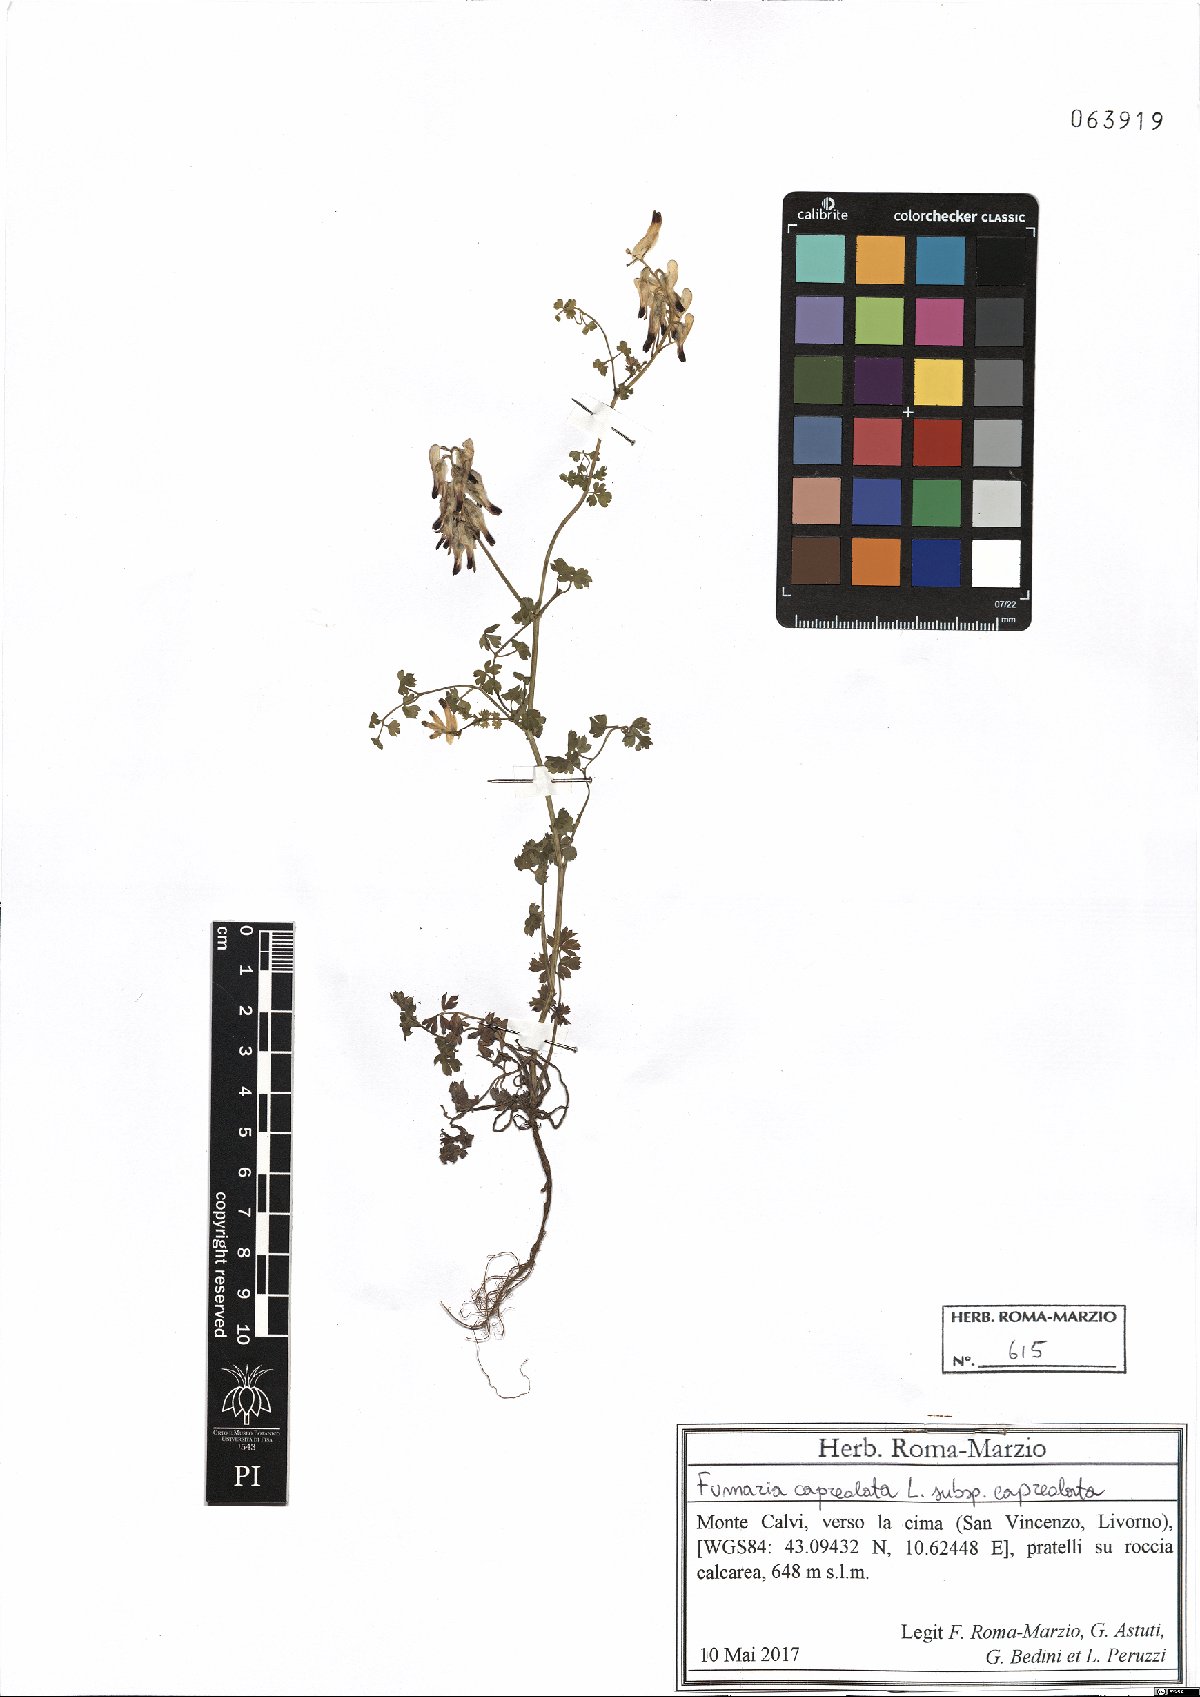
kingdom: Plantae
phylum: Tracheophyta
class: Magnoliopsida
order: Ranunculales
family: Papaveraceae
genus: Fumaria
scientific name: Fumaria capreolata
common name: White ramping-fumitory
